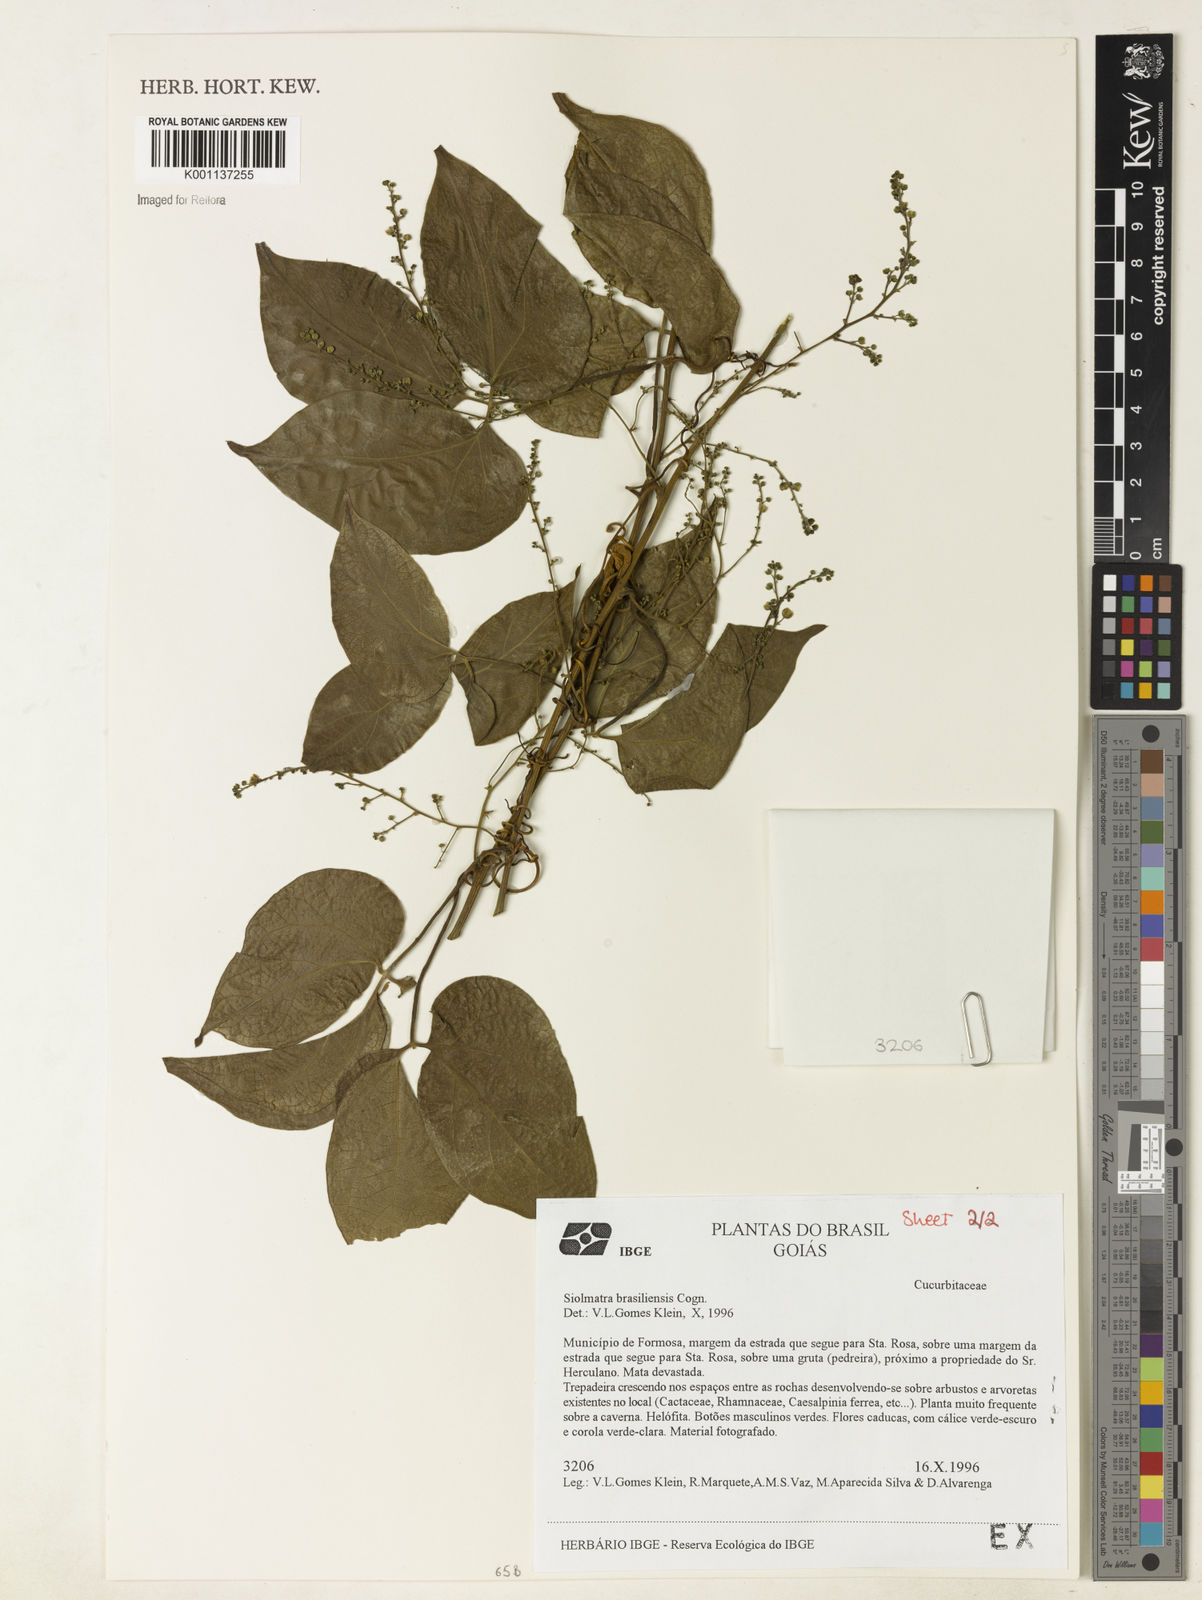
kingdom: Plantae
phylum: Tracheophyta
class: Magnoliopsida
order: Cucurbitales
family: Cucurbitaceae
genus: Siolmatra
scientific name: Siolmatra brasiliensis
